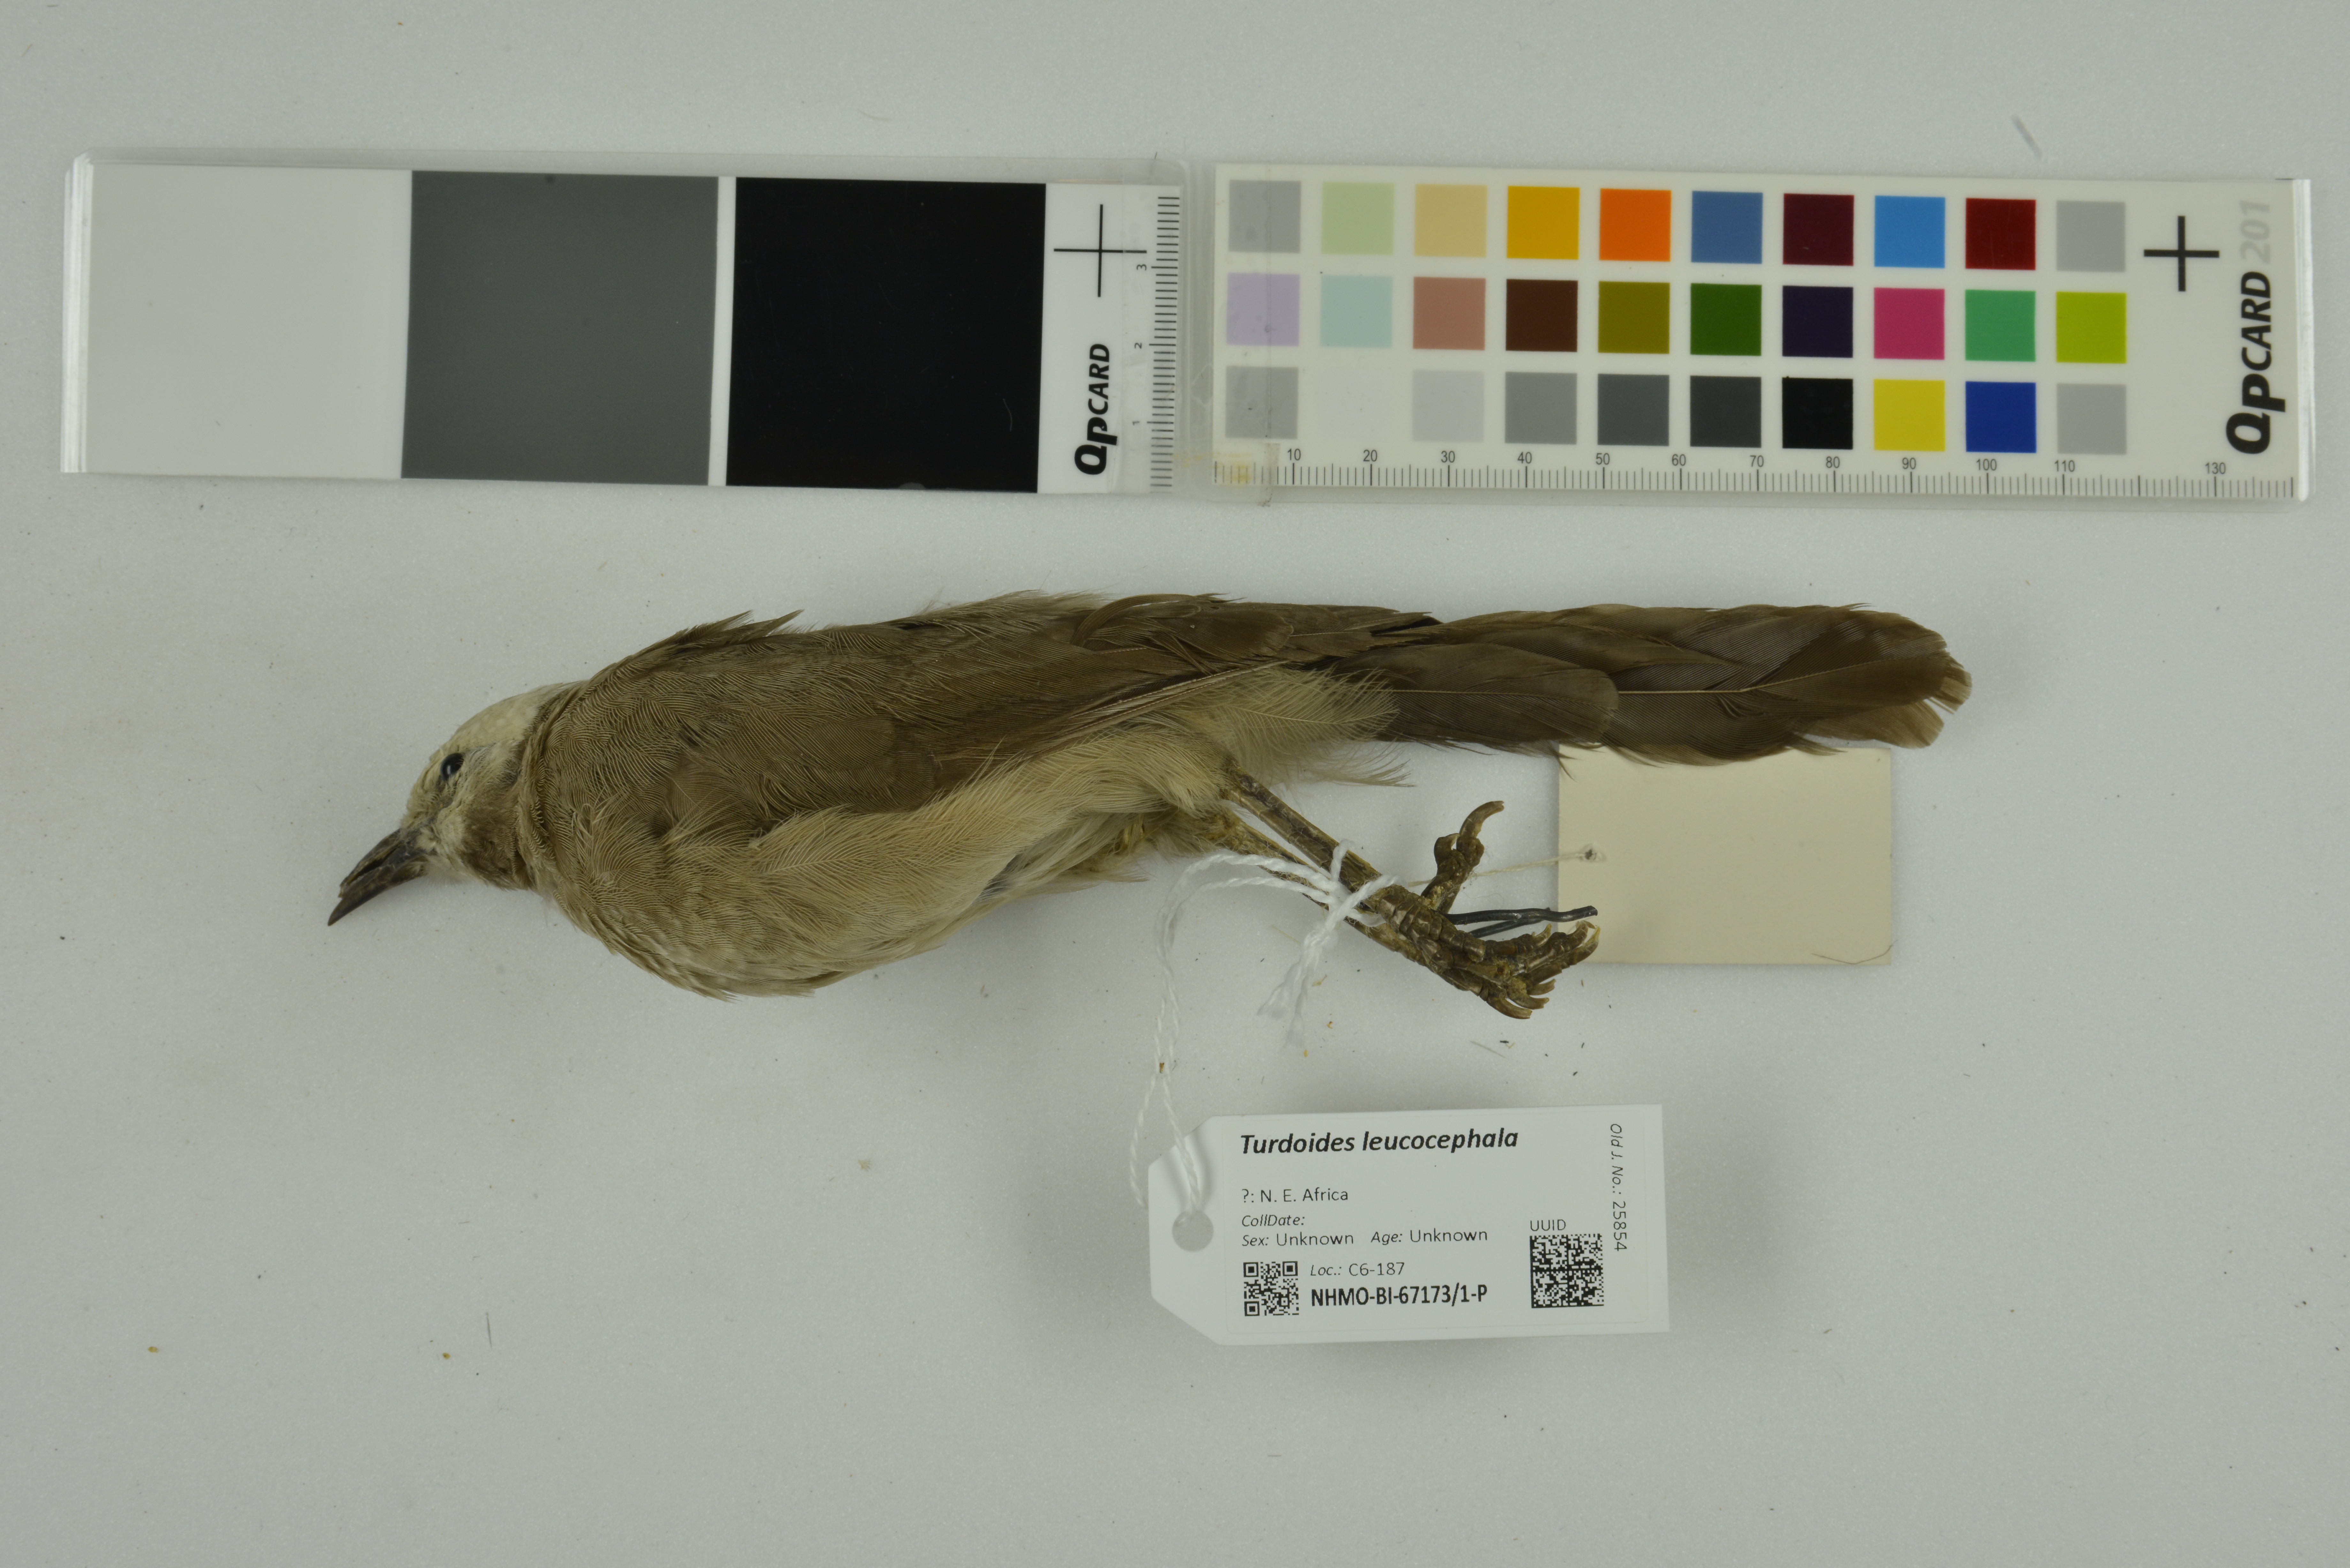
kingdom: Animalia
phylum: Chordata
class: Aves
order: Passeriformes
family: Leiothrichidae
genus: Turdoides
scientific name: Turdoides leucocephala
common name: White-headed babbler
